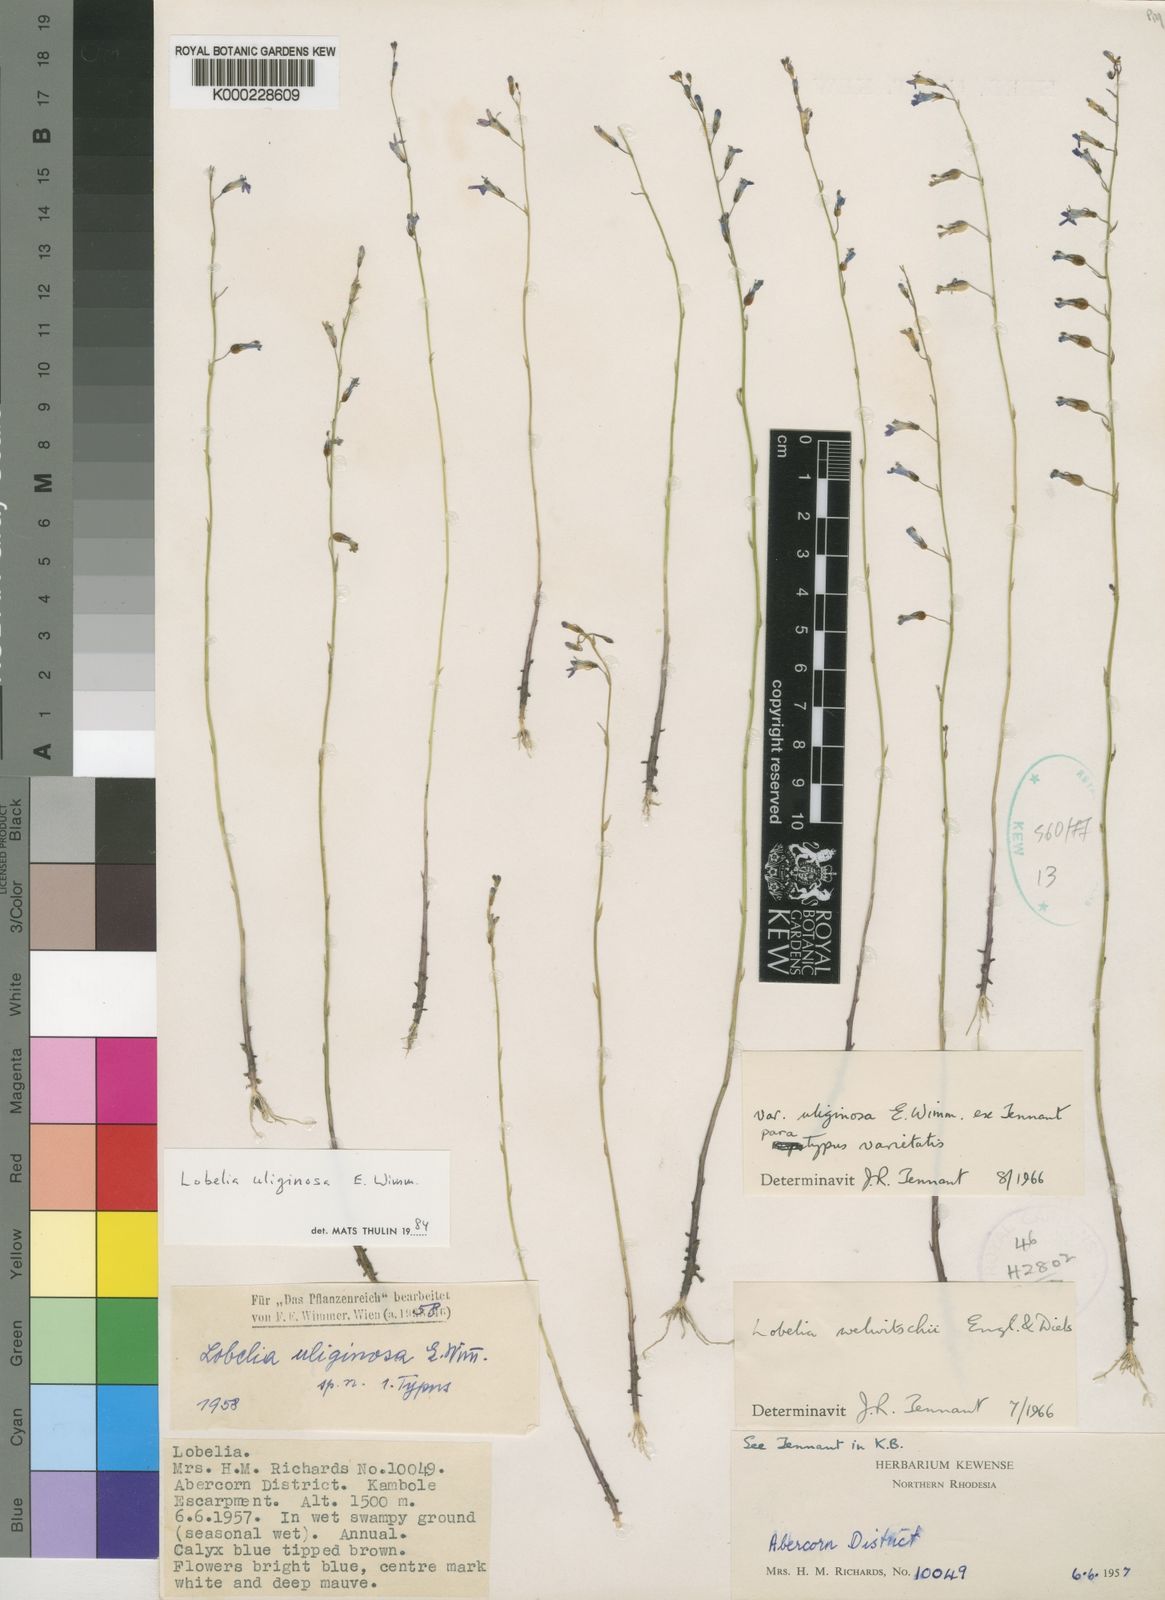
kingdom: Plantae
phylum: Tracheophyta
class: Magnoliopsida
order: Asterales
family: Campanulaceae
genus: Lobelia
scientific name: Lobelia uliginosa
